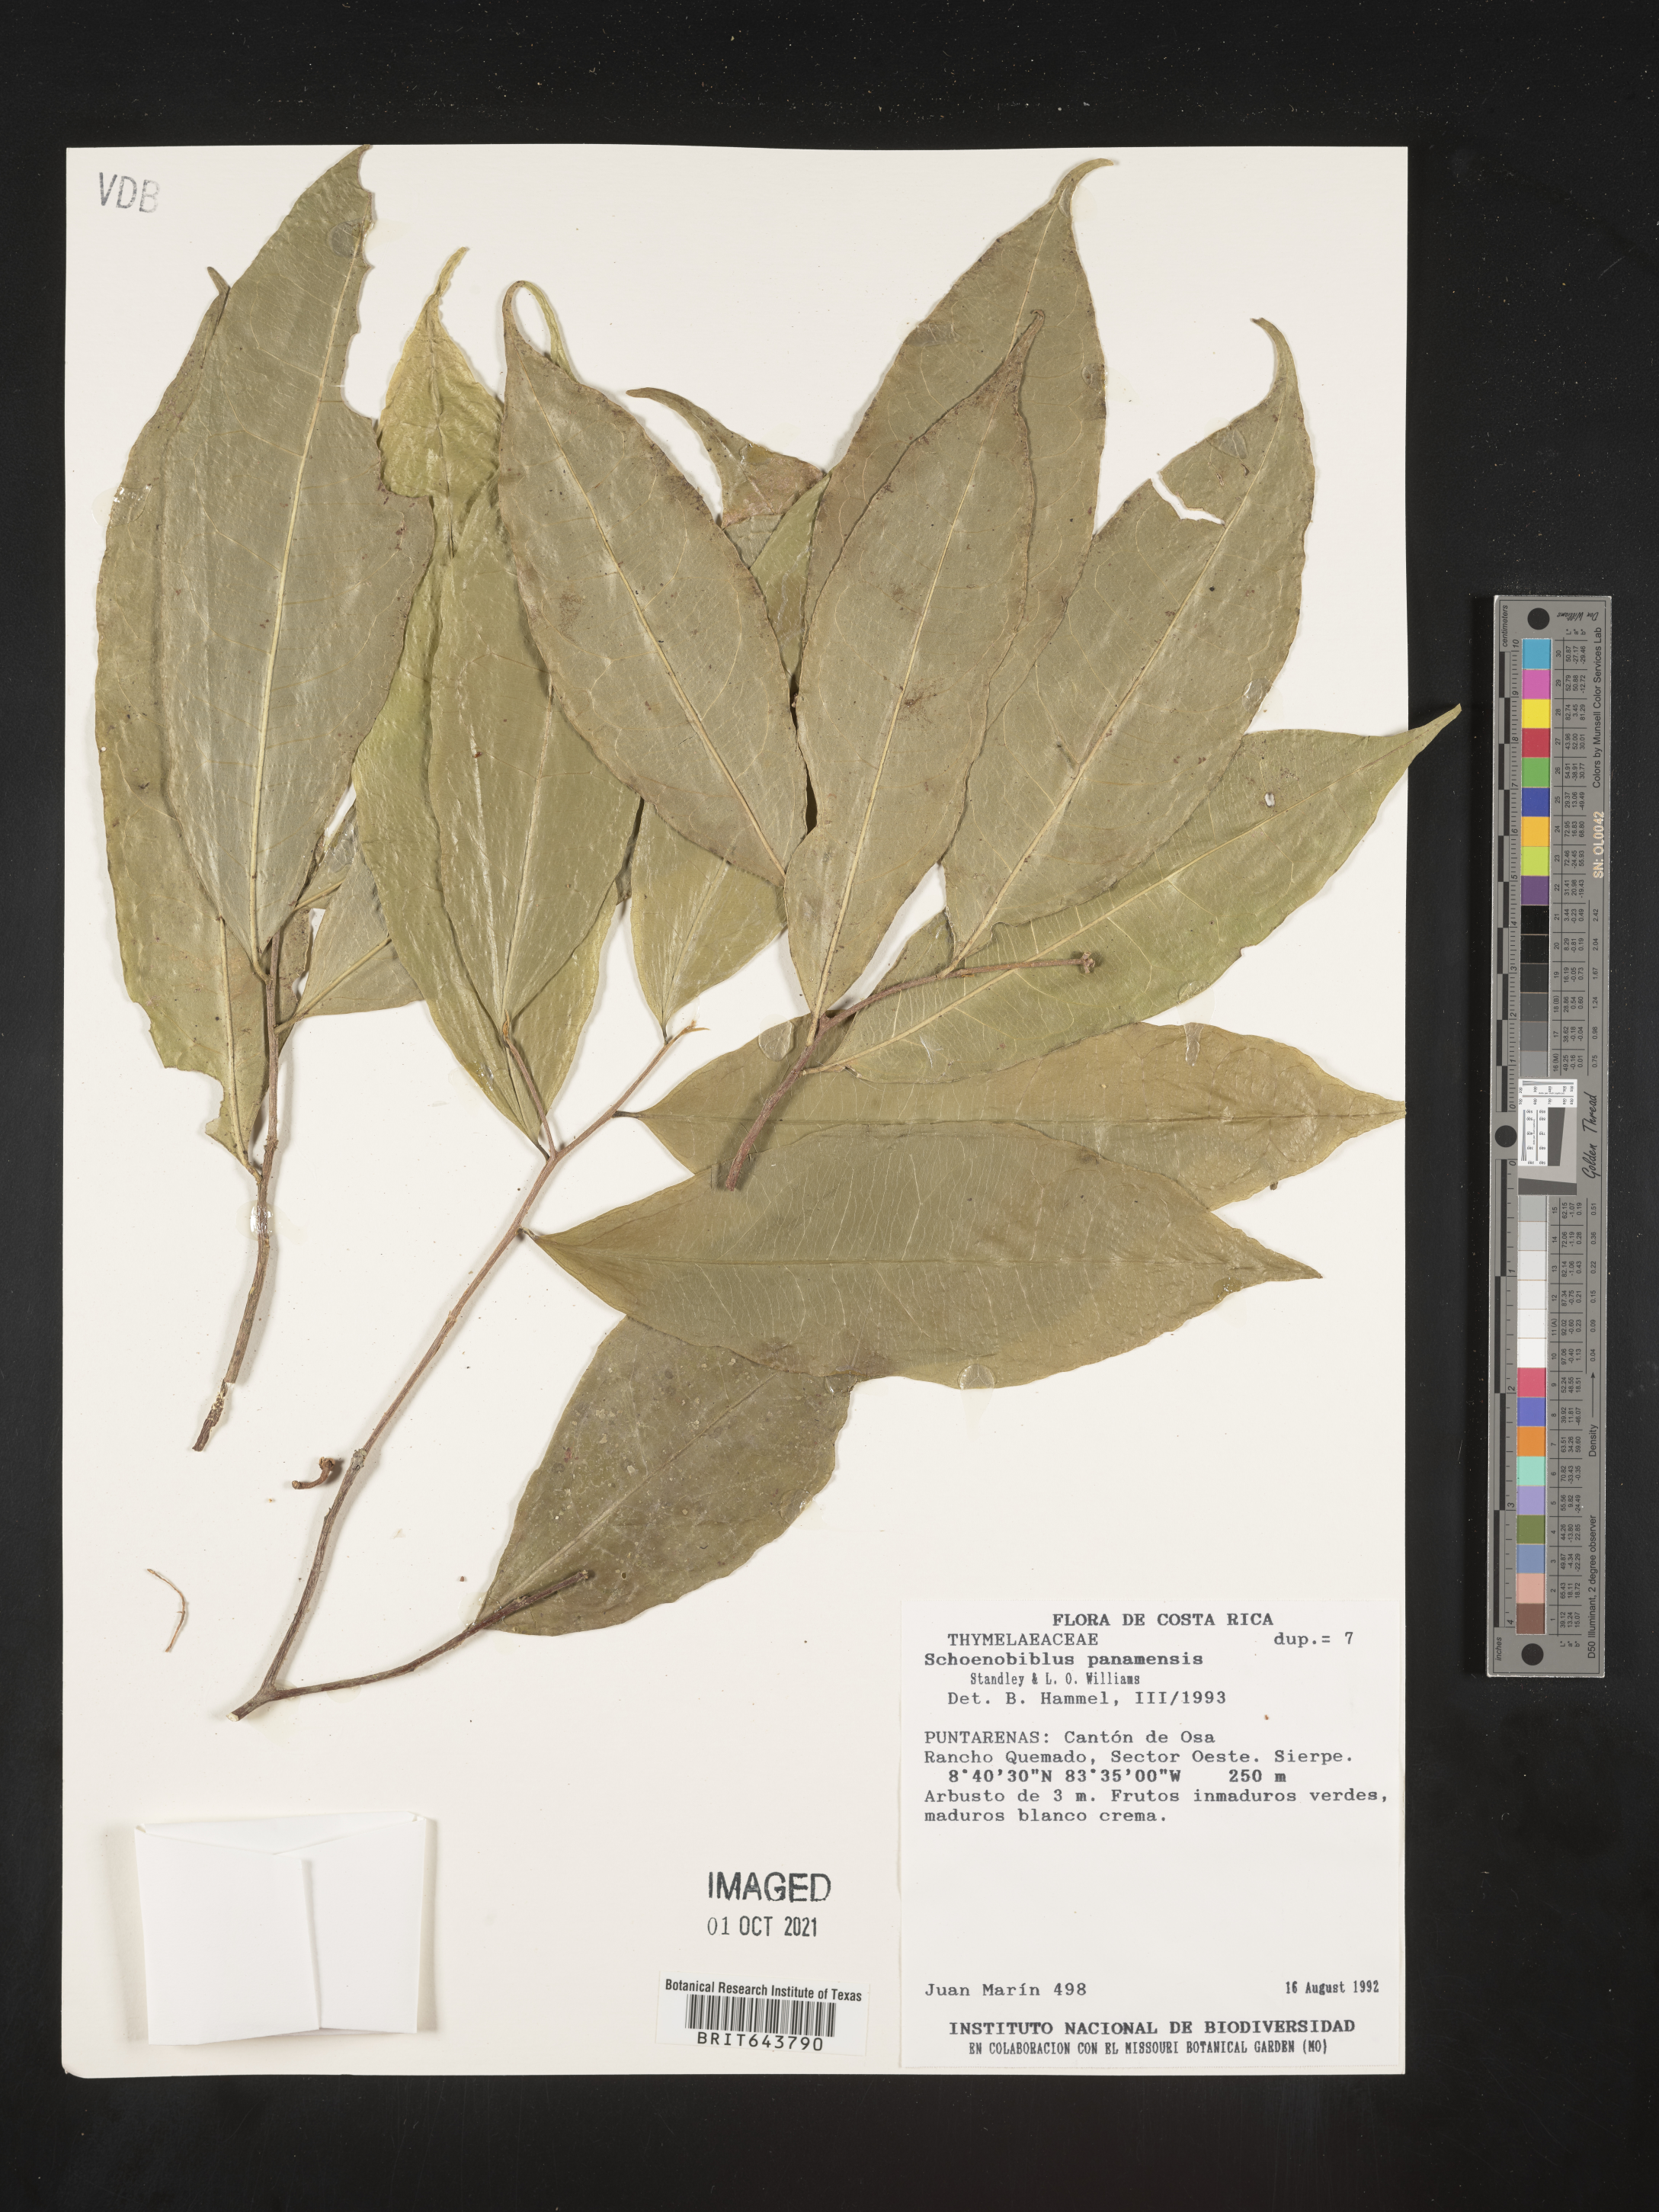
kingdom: Plantae
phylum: Tracheophyta
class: Magnoliopsida
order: Malvales
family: Thymelaeaceae
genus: Schoenobiblus
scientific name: Schoenobiblus
